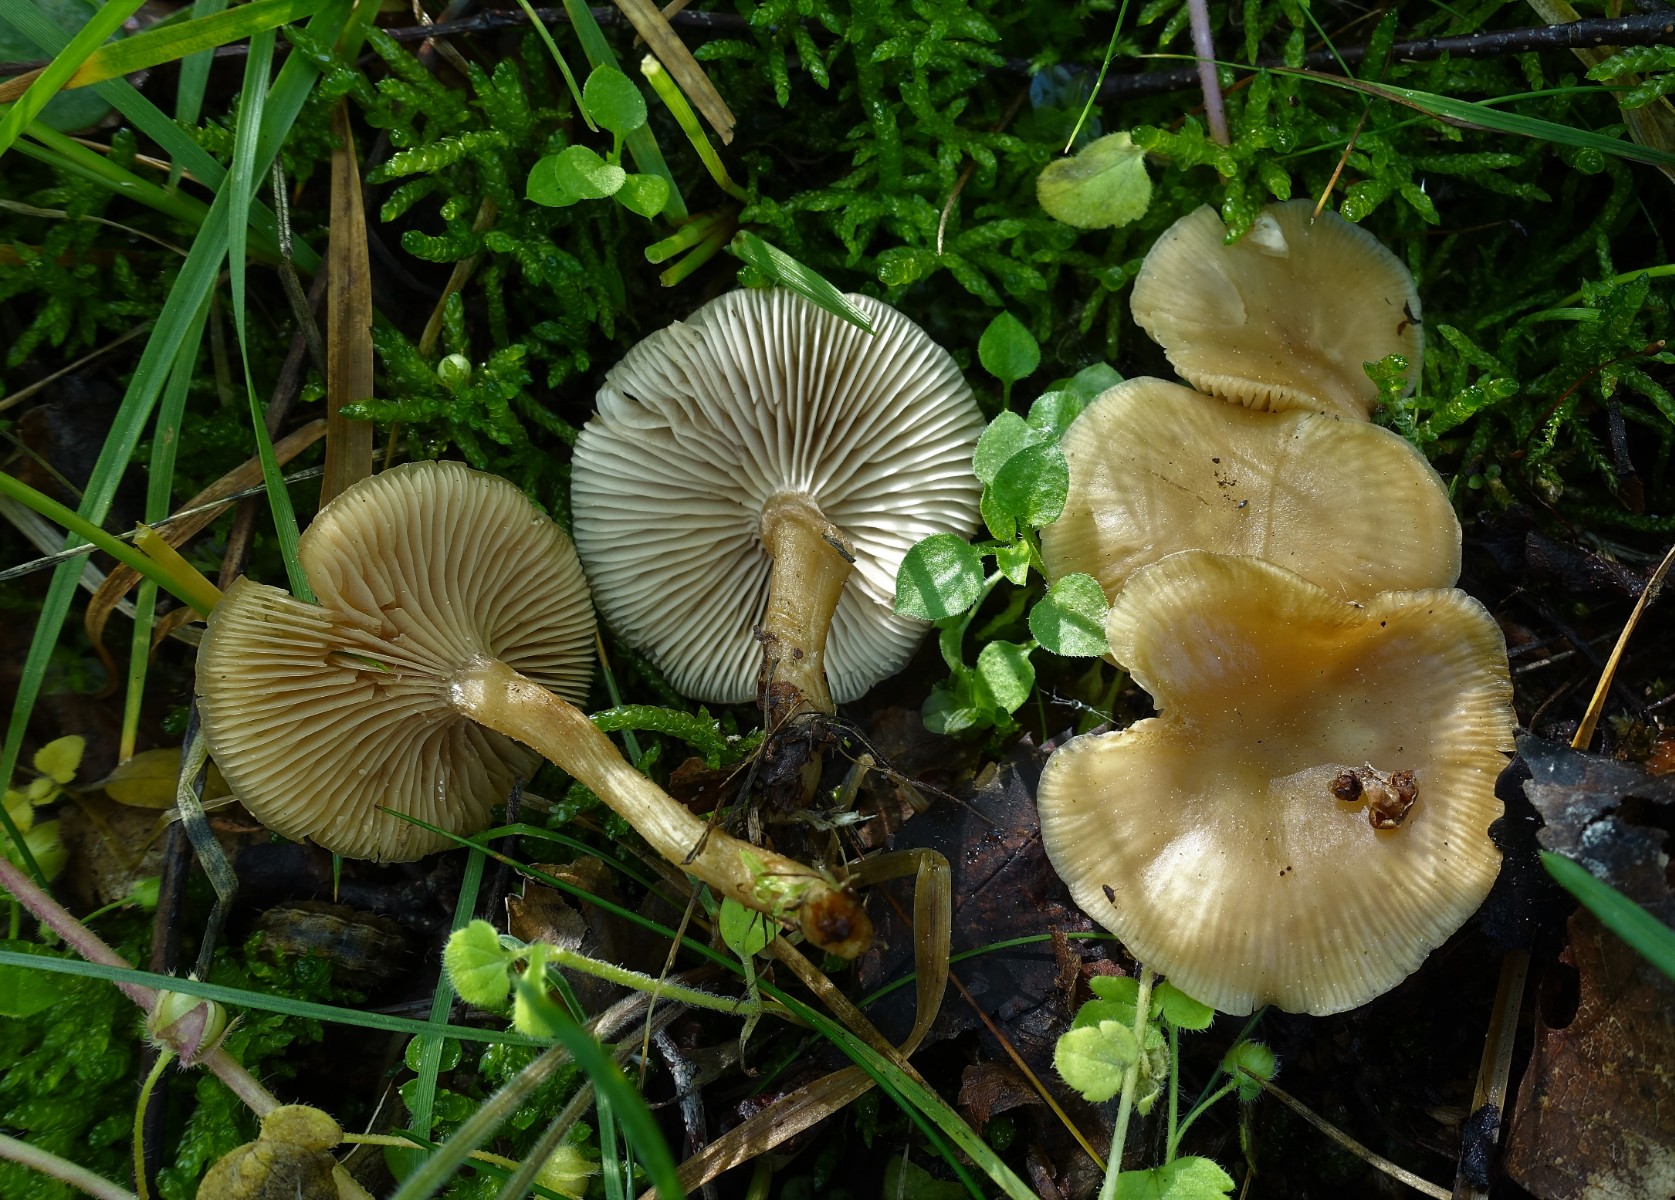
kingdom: Fungi
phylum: Basidiomycota
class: Agaricomycetes
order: Agaricales
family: Tricholomataceae
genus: Clitocybe
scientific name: Clitocybe fragrans
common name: vellugtende tragthat
